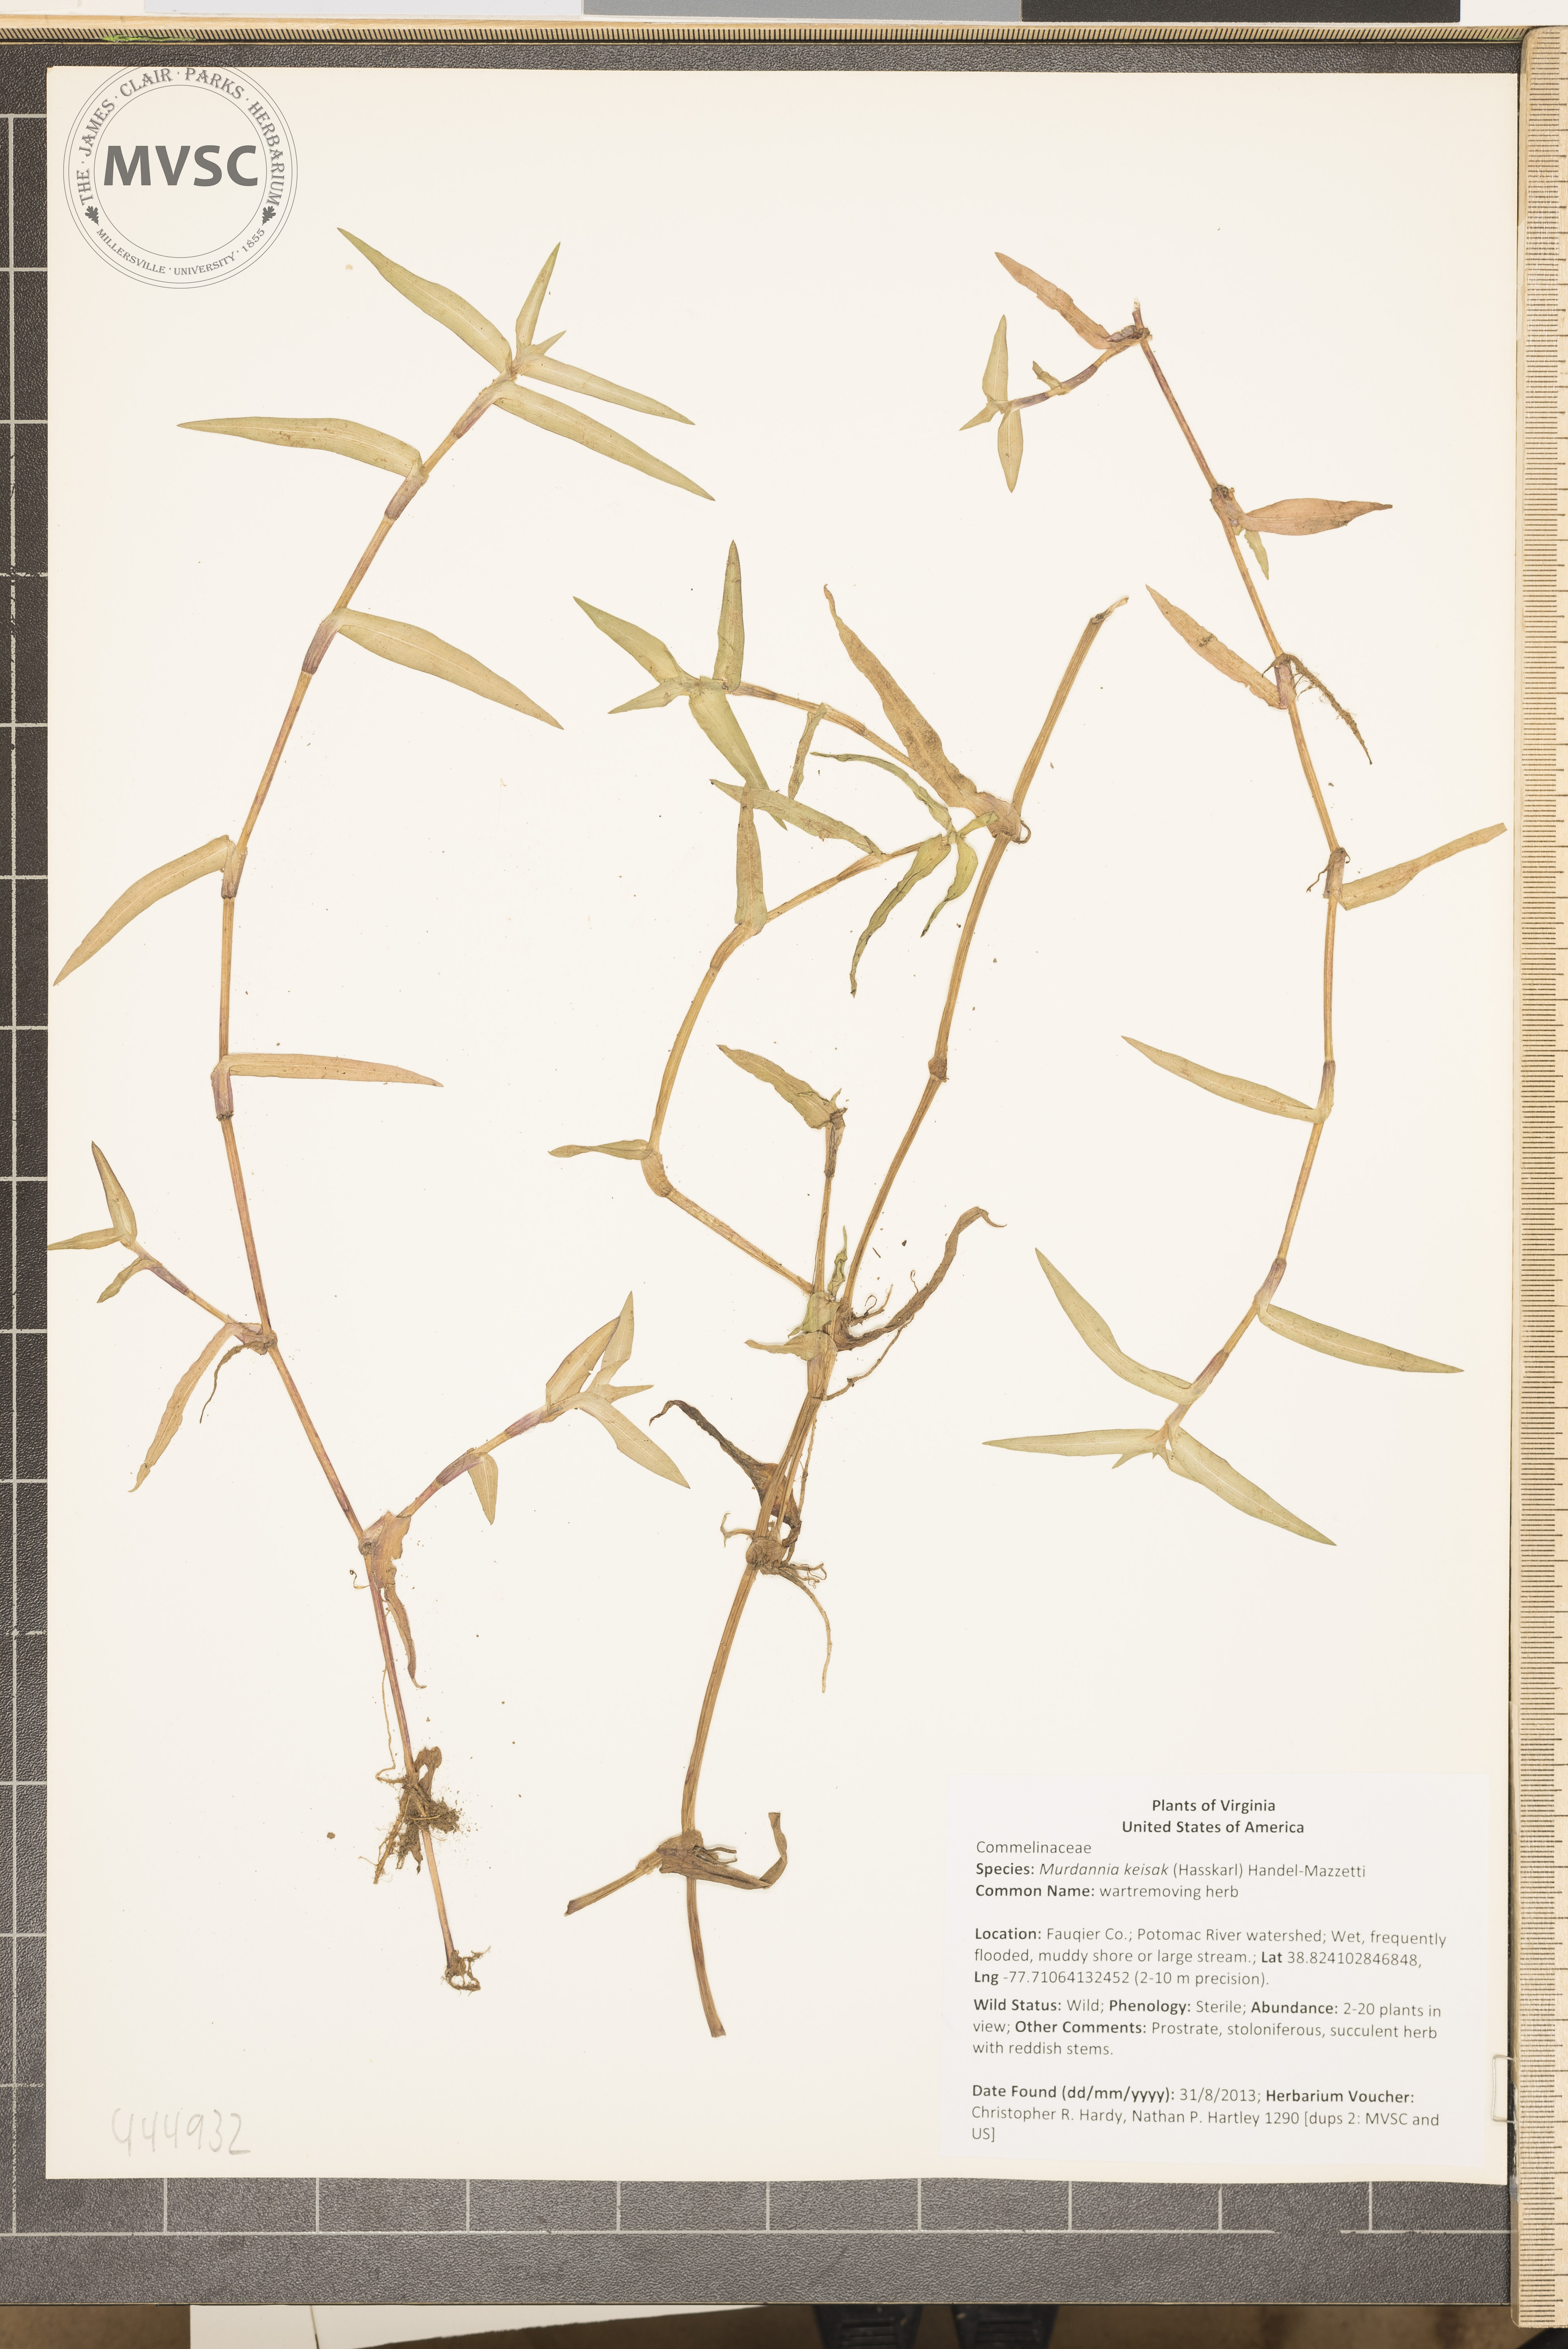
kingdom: Plantae
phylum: Tracheophyta
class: Liliopsida
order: Commelinales
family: Commelinaceae
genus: Murdannia
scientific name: Murdannia keisak
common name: wartremoving herb
